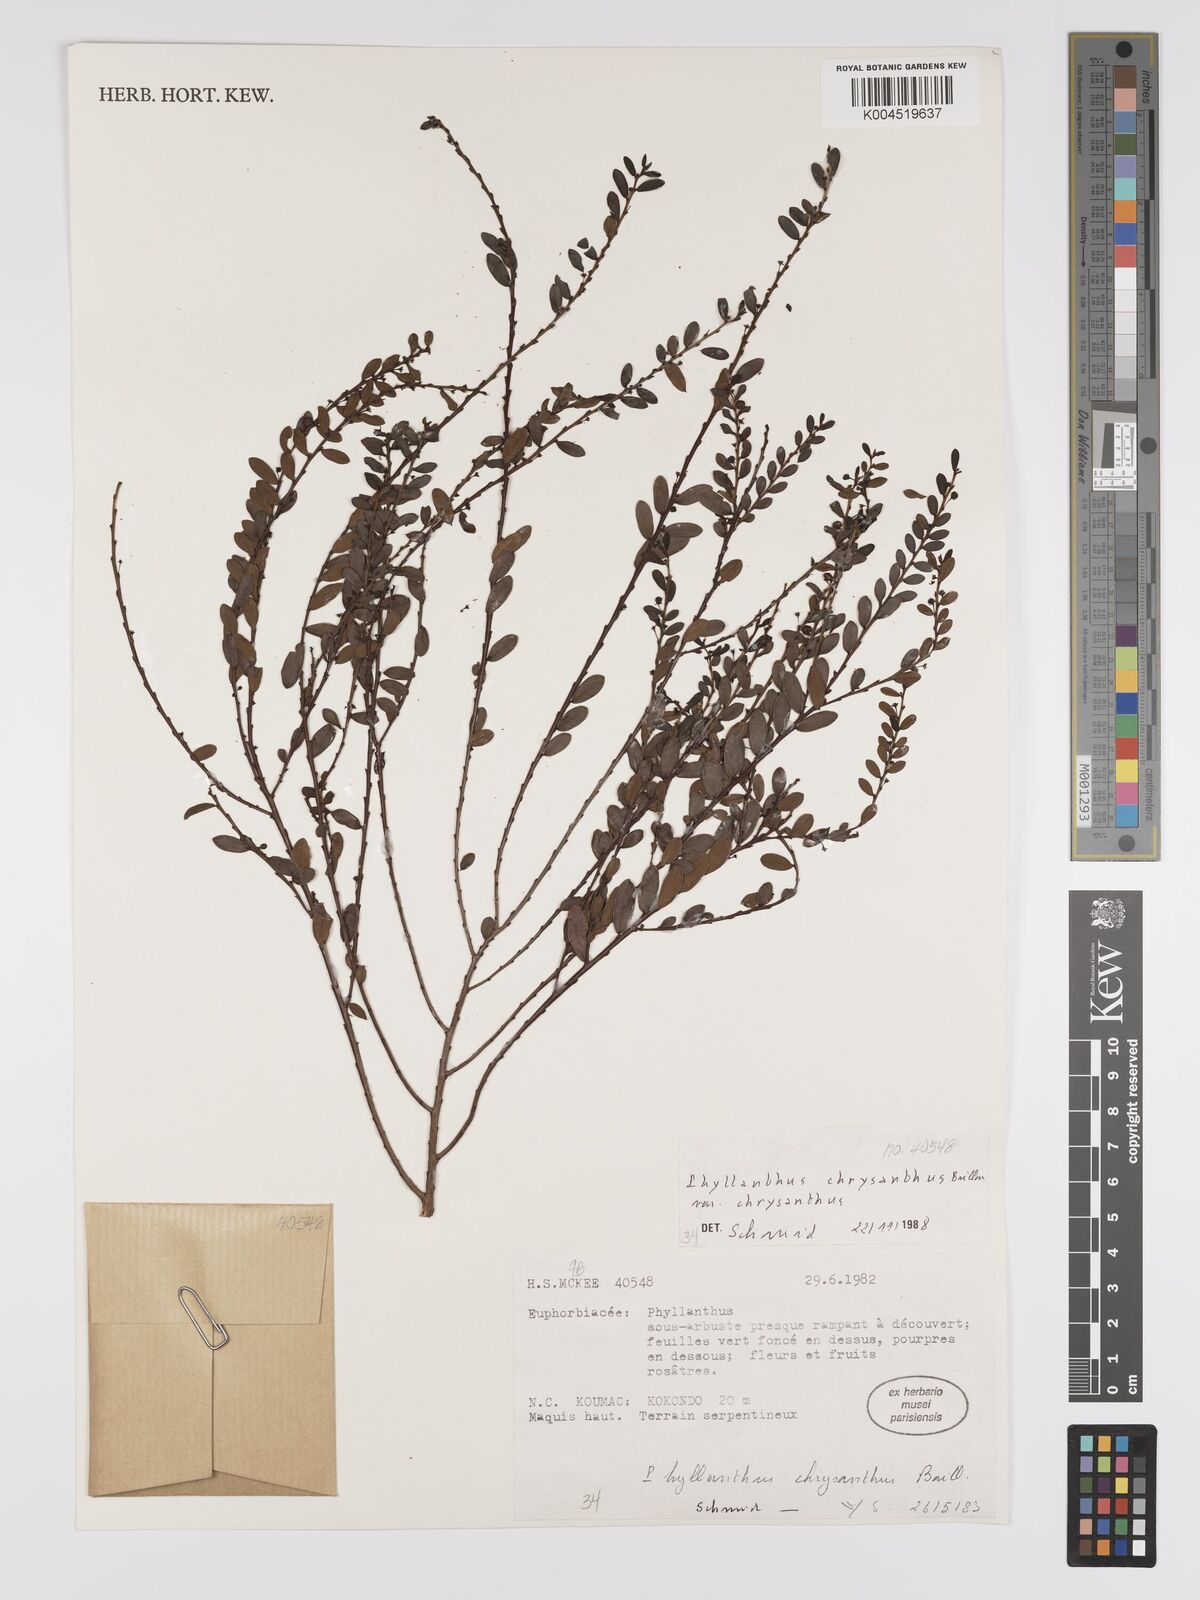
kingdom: Plantae
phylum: Tracheophyta
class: Magnoliopsida
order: Malpighiales
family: Phyllanthaceae
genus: Phyllanthus
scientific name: Phyllanthus chrysanthus
